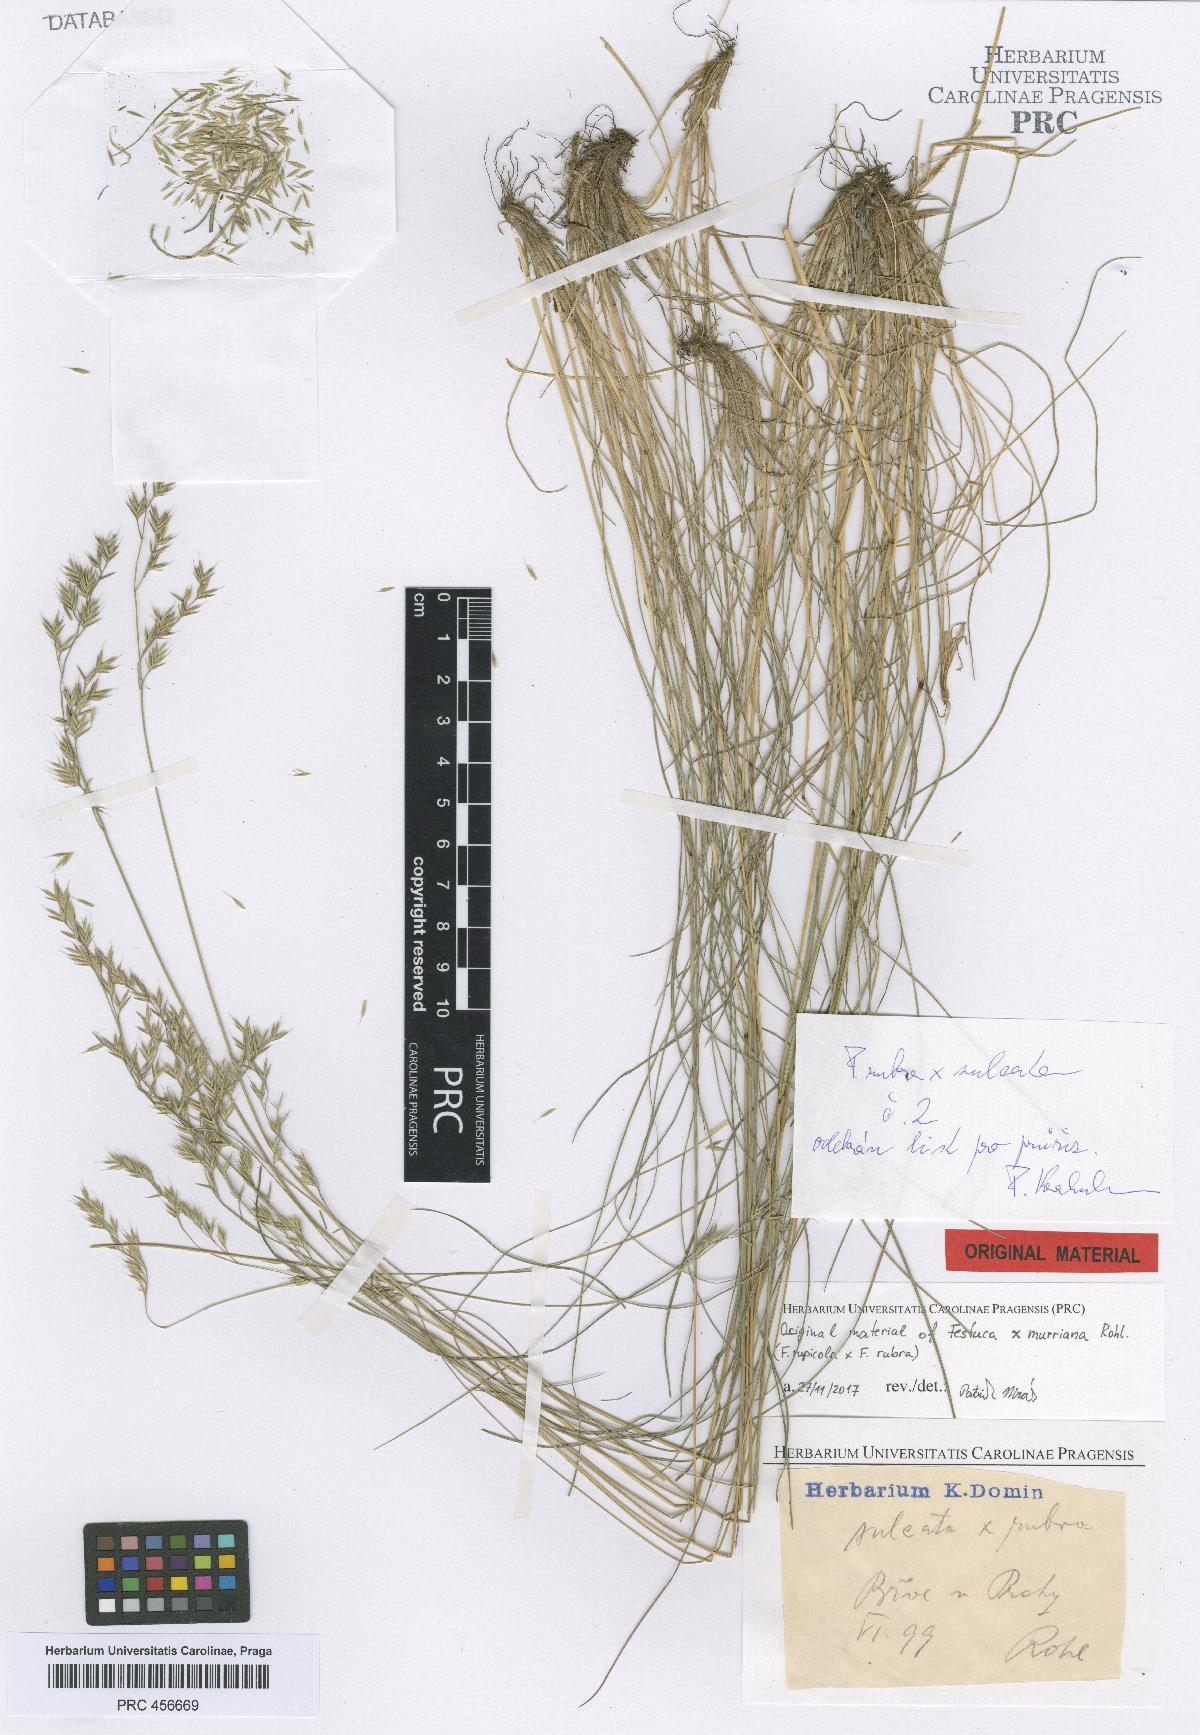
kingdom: Plantae
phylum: Tracheophyta
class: Liliopsida
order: Poales
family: Poaceae
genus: Festuca
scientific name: Festuca murriana
